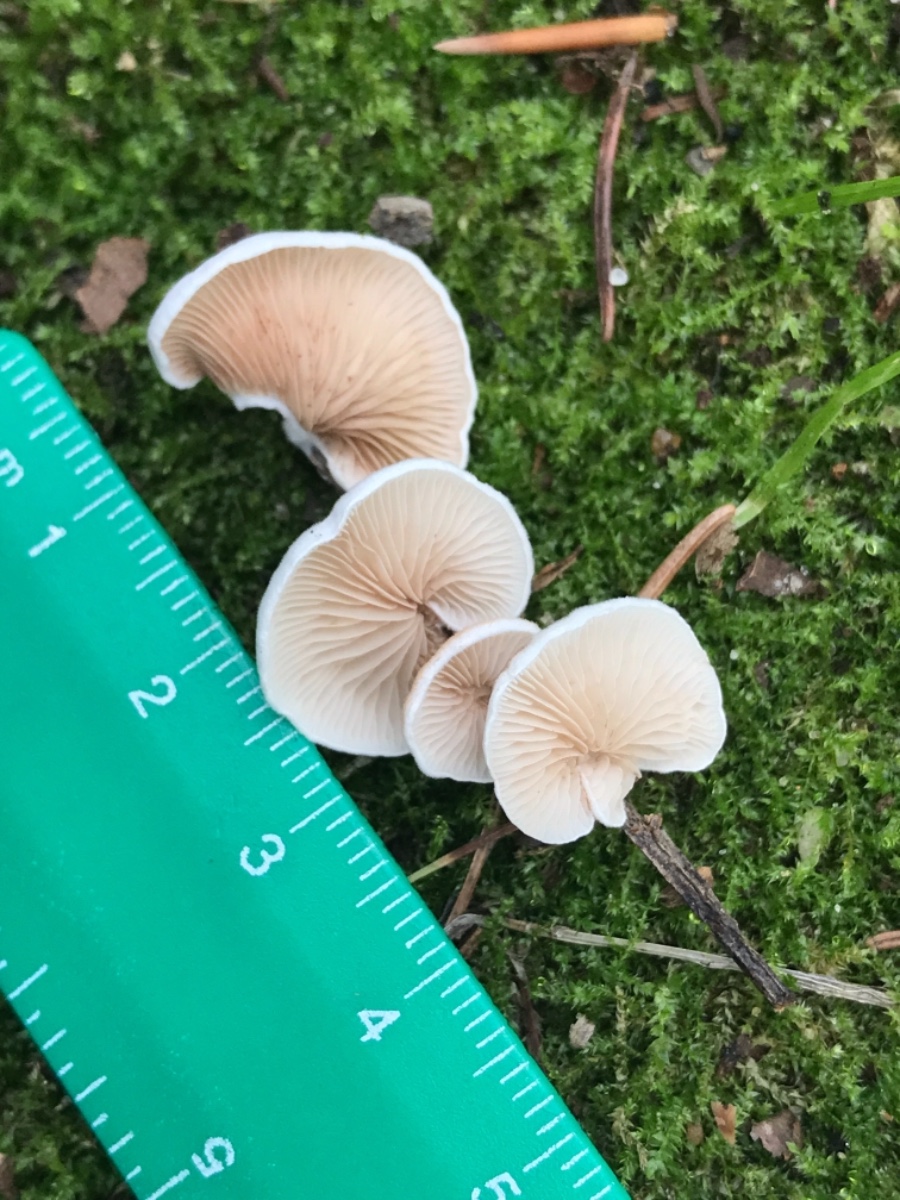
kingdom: Fungi
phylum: Basidiomycota
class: Agaricomycetes
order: Agaricales
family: Crepidotaceae
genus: Crepidotus
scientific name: Crepidotus
